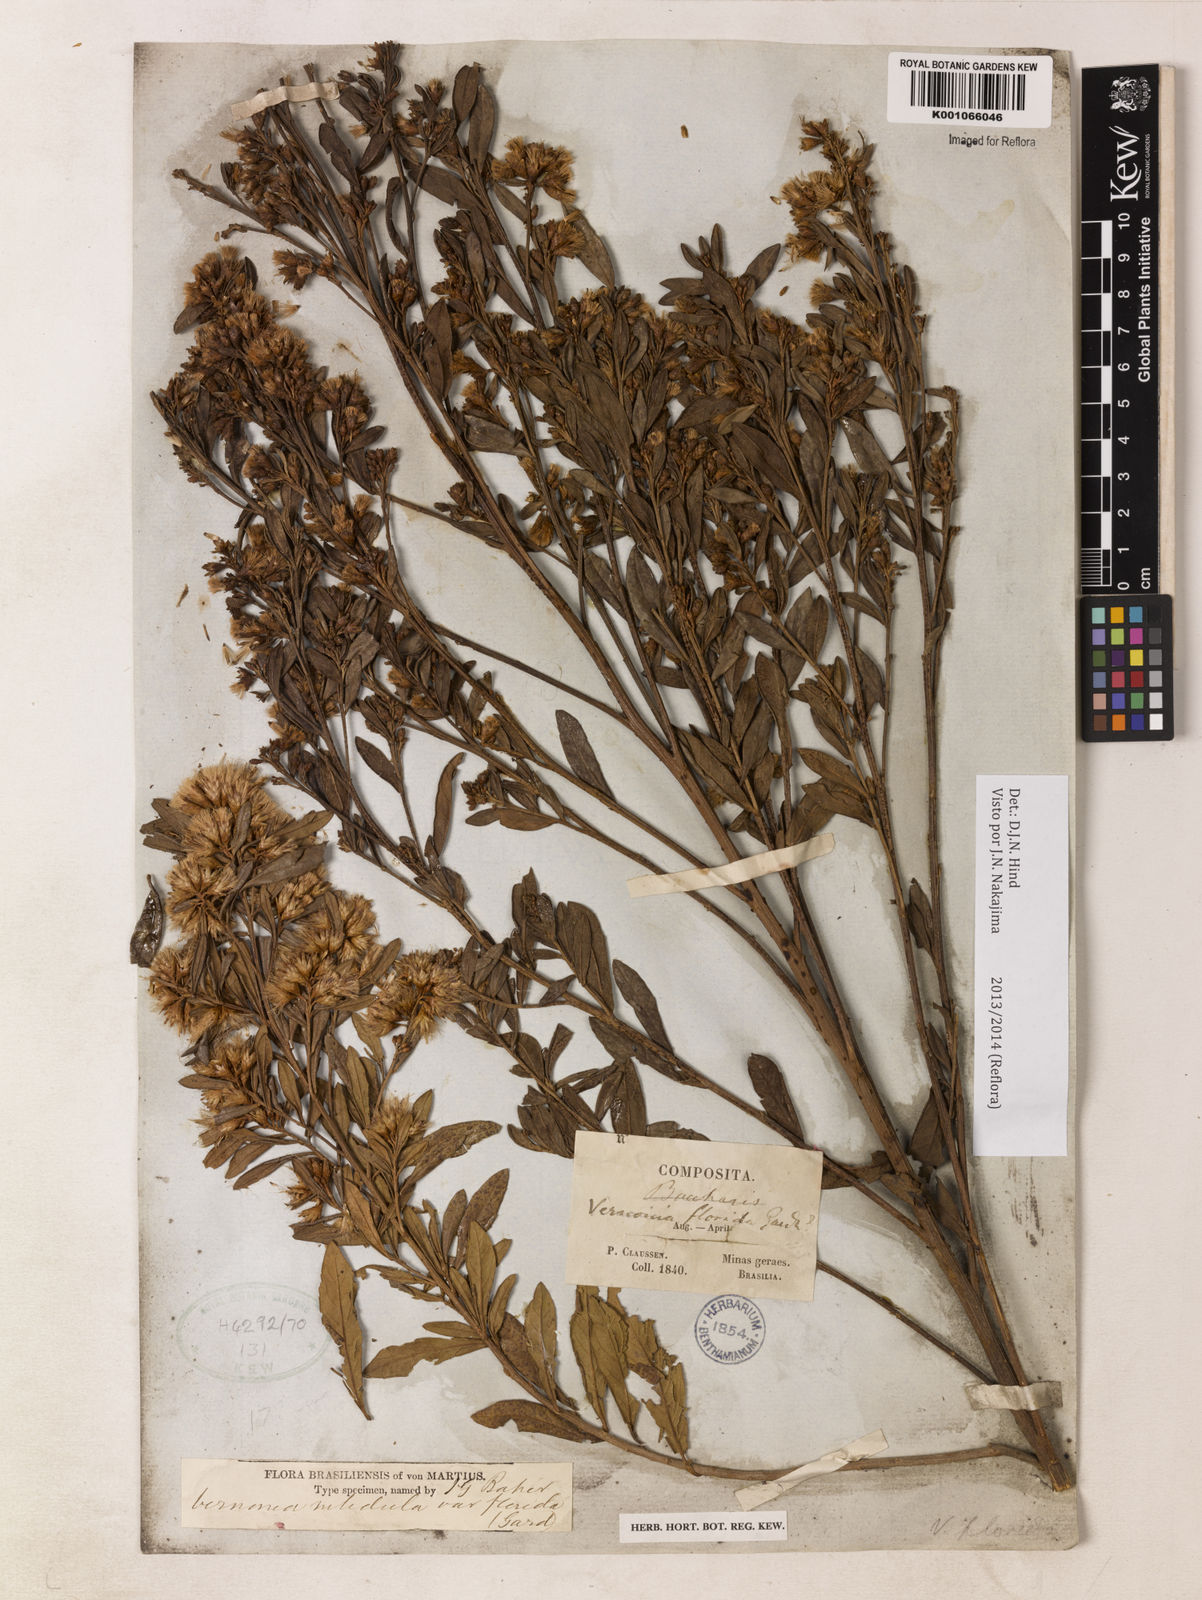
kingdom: Plantae
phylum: Tracheophyta
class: Magnoliopsida
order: Asterales
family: Asteraceae
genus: Vernonanthura
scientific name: Vernonanthura montevidensis
